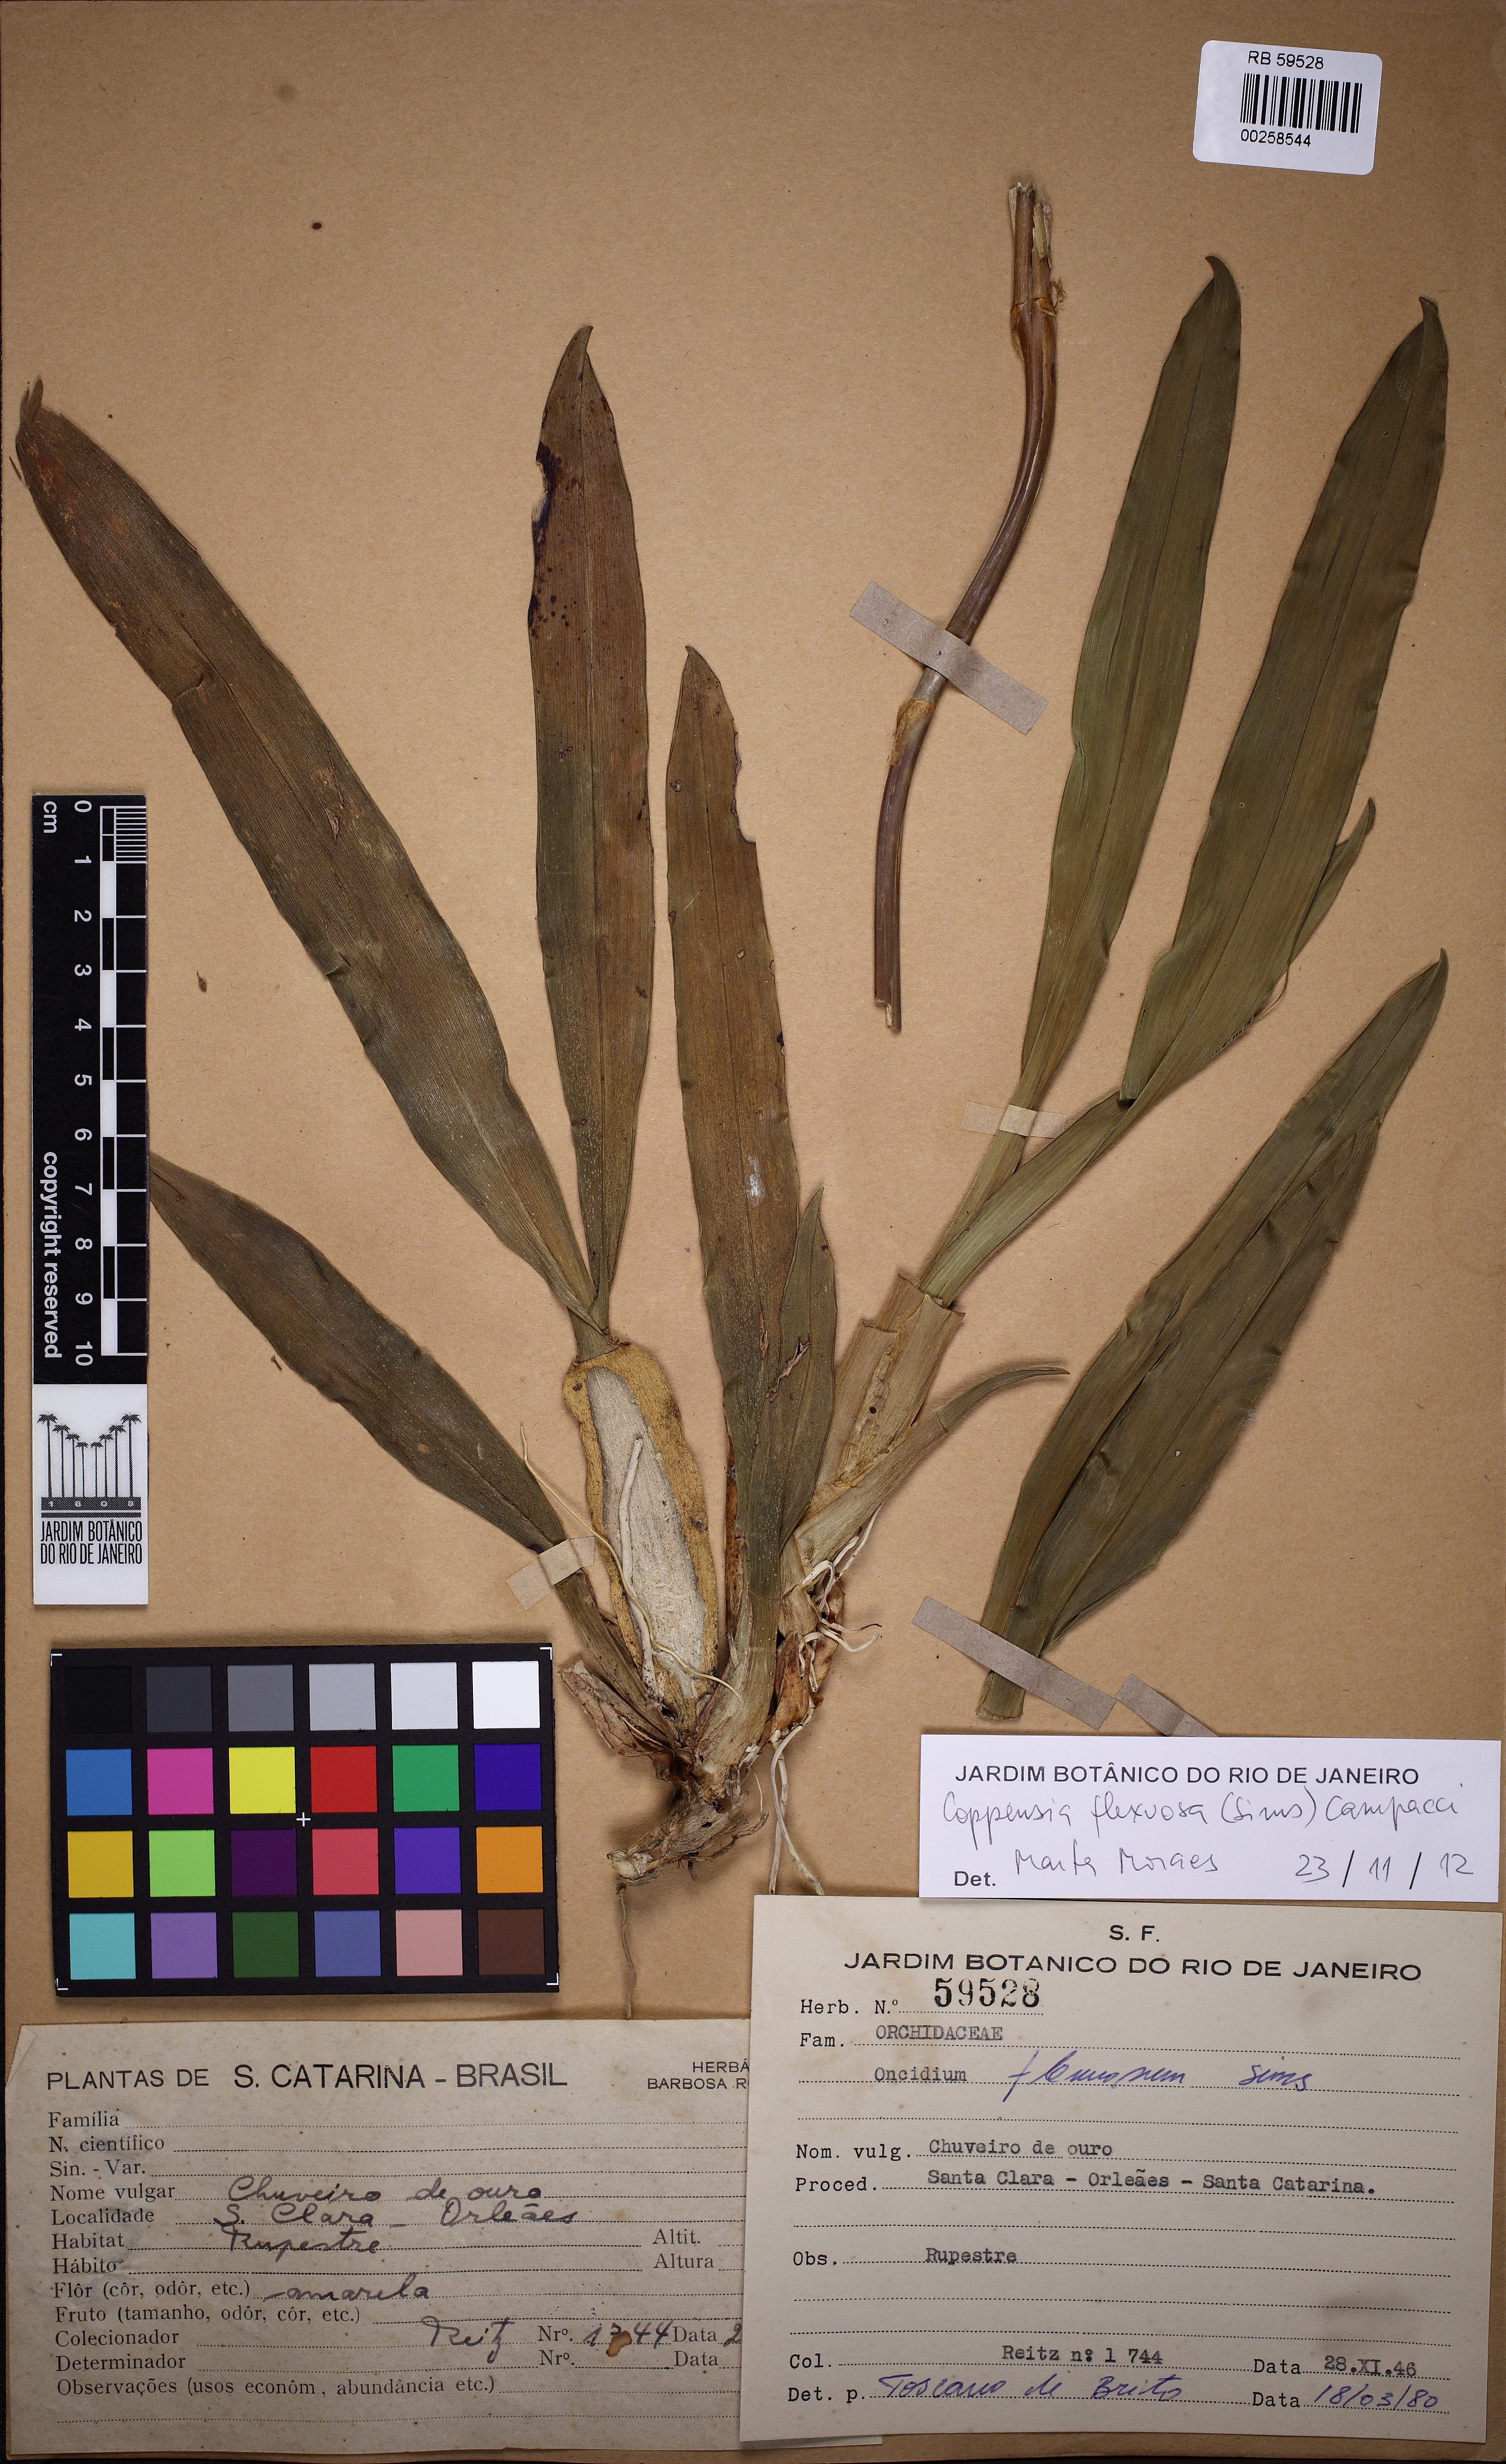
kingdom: Plantae
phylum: Tracheophyta
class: Liliopsida
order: Asparagales
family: Orchidaceae
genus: Gomesa
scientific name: Gomesa flexuosa
